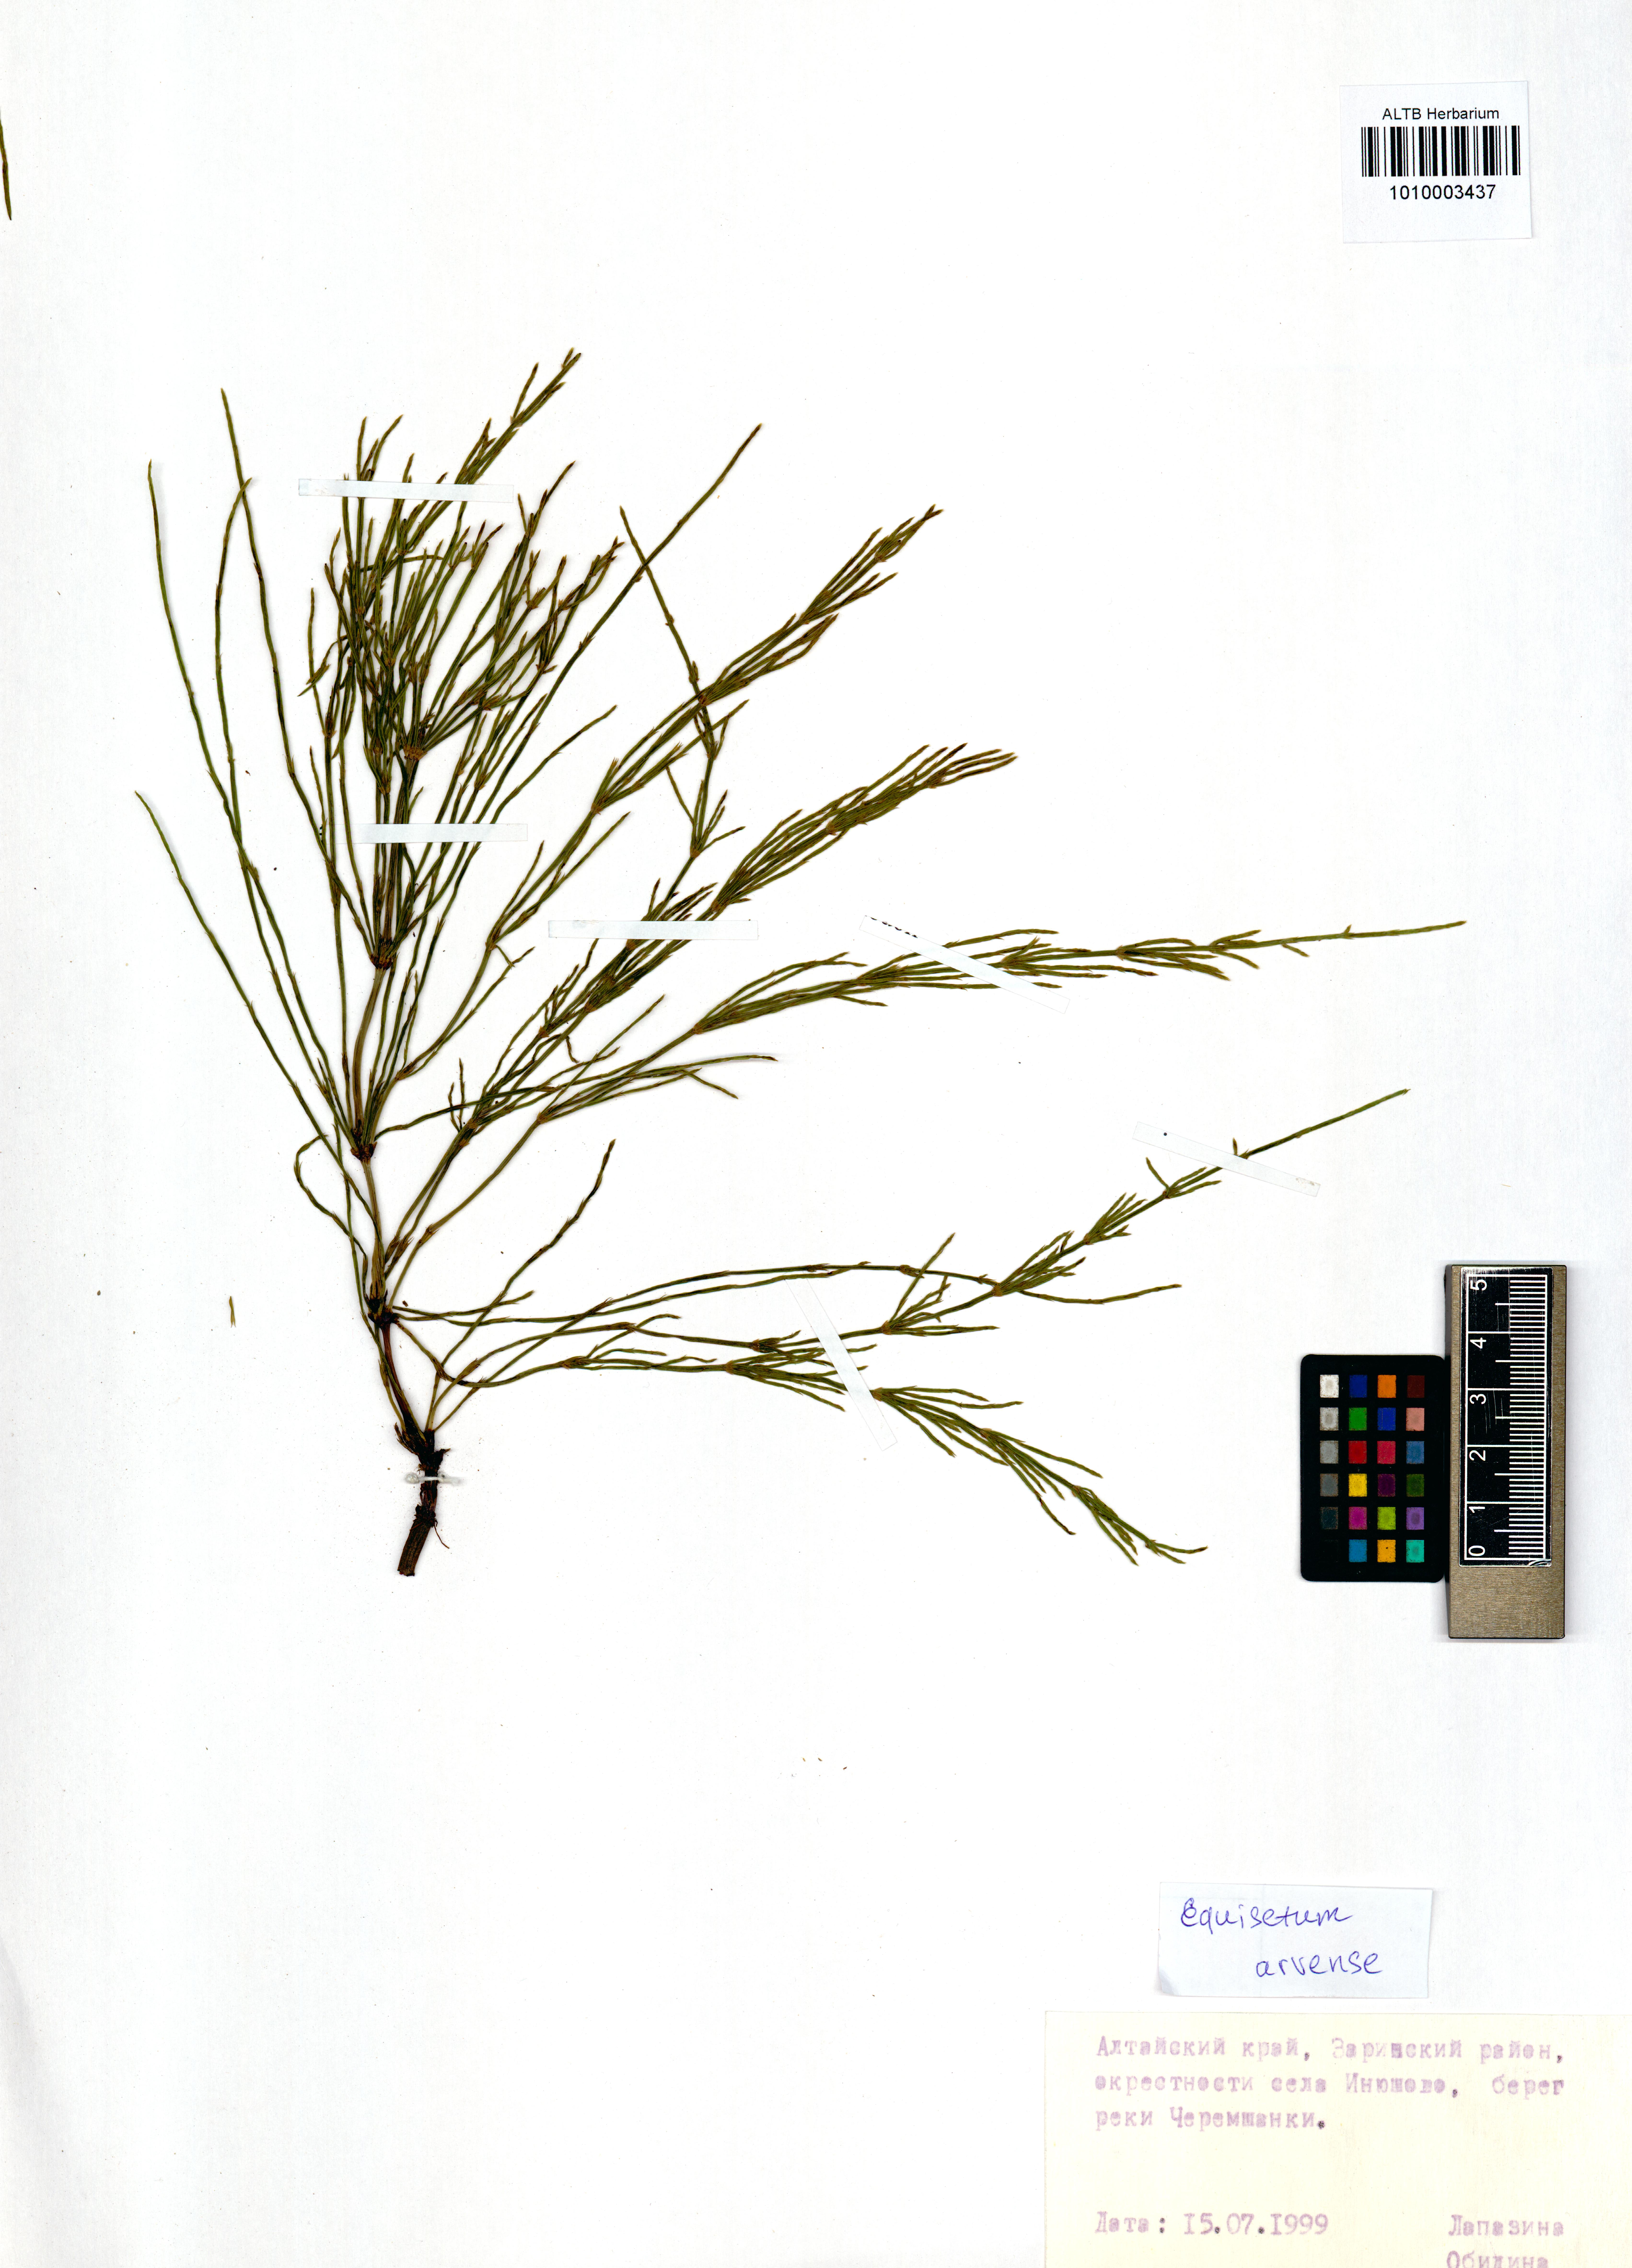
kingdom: Plantae
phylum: Tracheophyta
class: Polypodiopsida
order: Equisetales
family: Equisetaceae
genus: Equisetum
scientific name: Equisetum arvense
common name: Field horsetail
